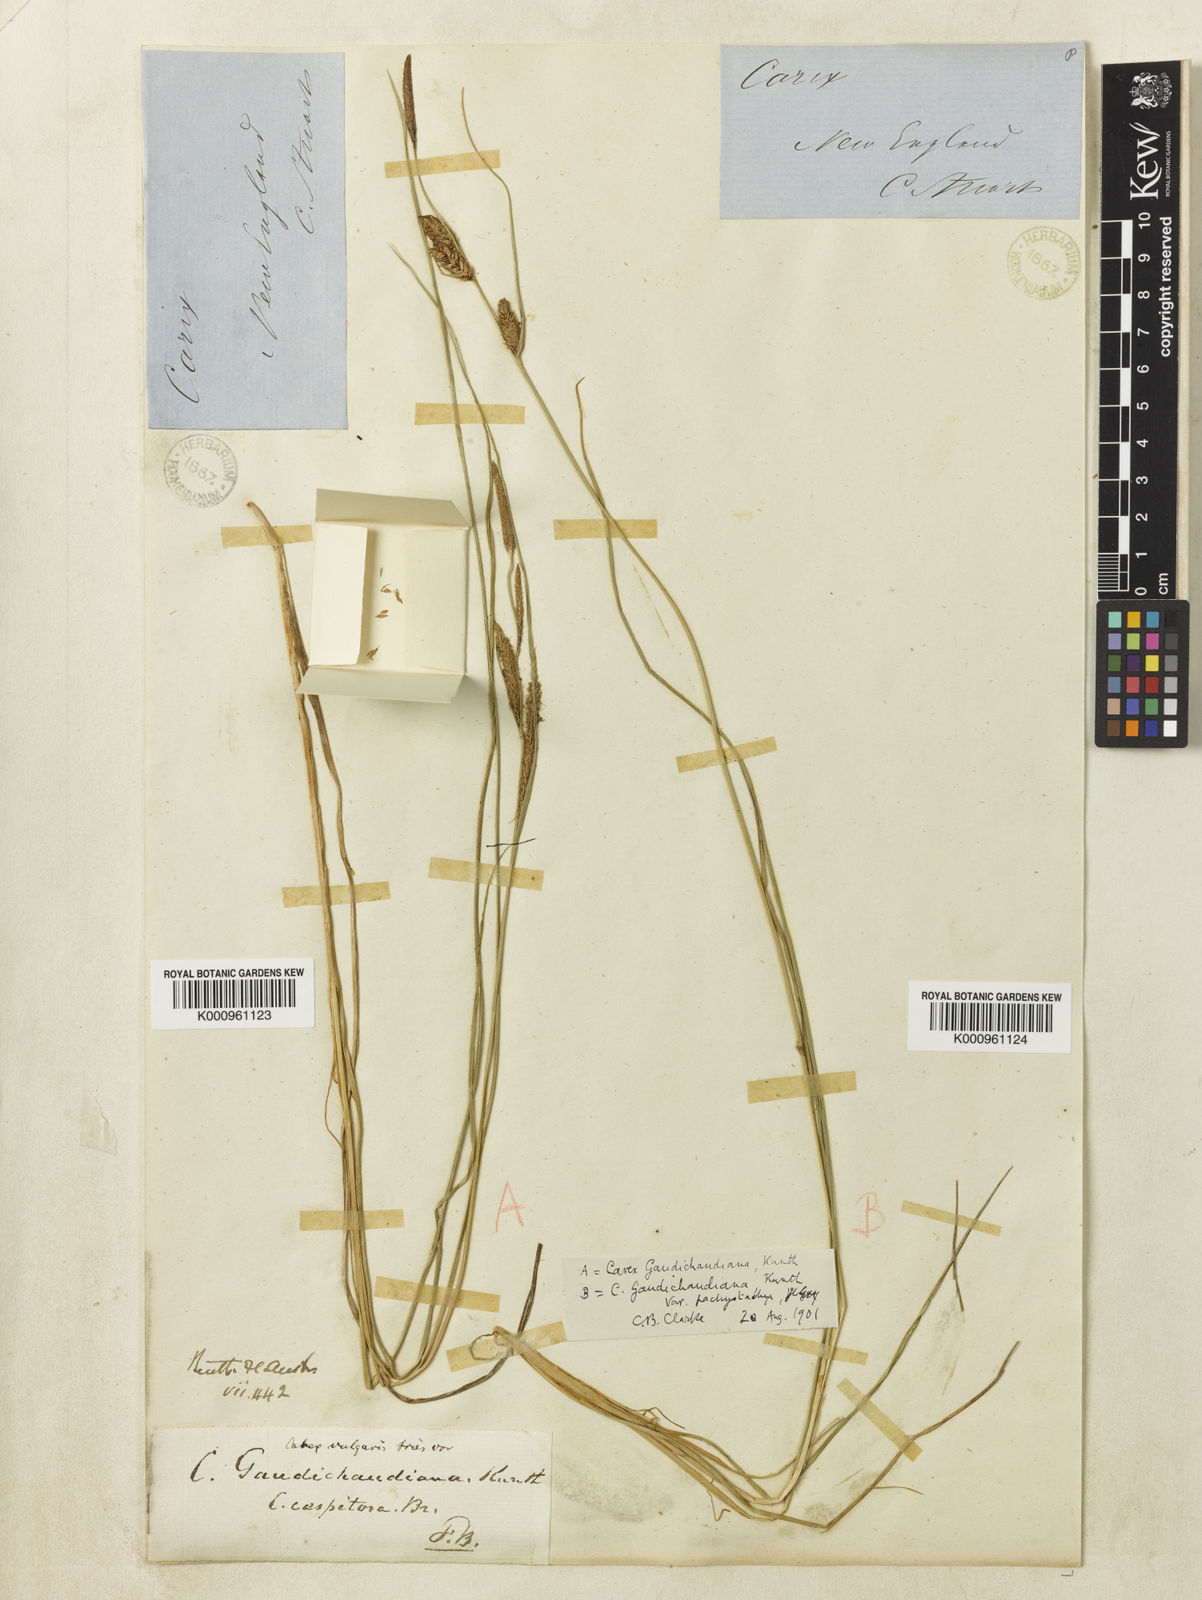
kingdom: Plantae
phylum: Tracheophyta
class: Liliopsida
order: Poales
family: Cyperaceae
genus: Carex
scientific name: Carex gaudichaudiana
